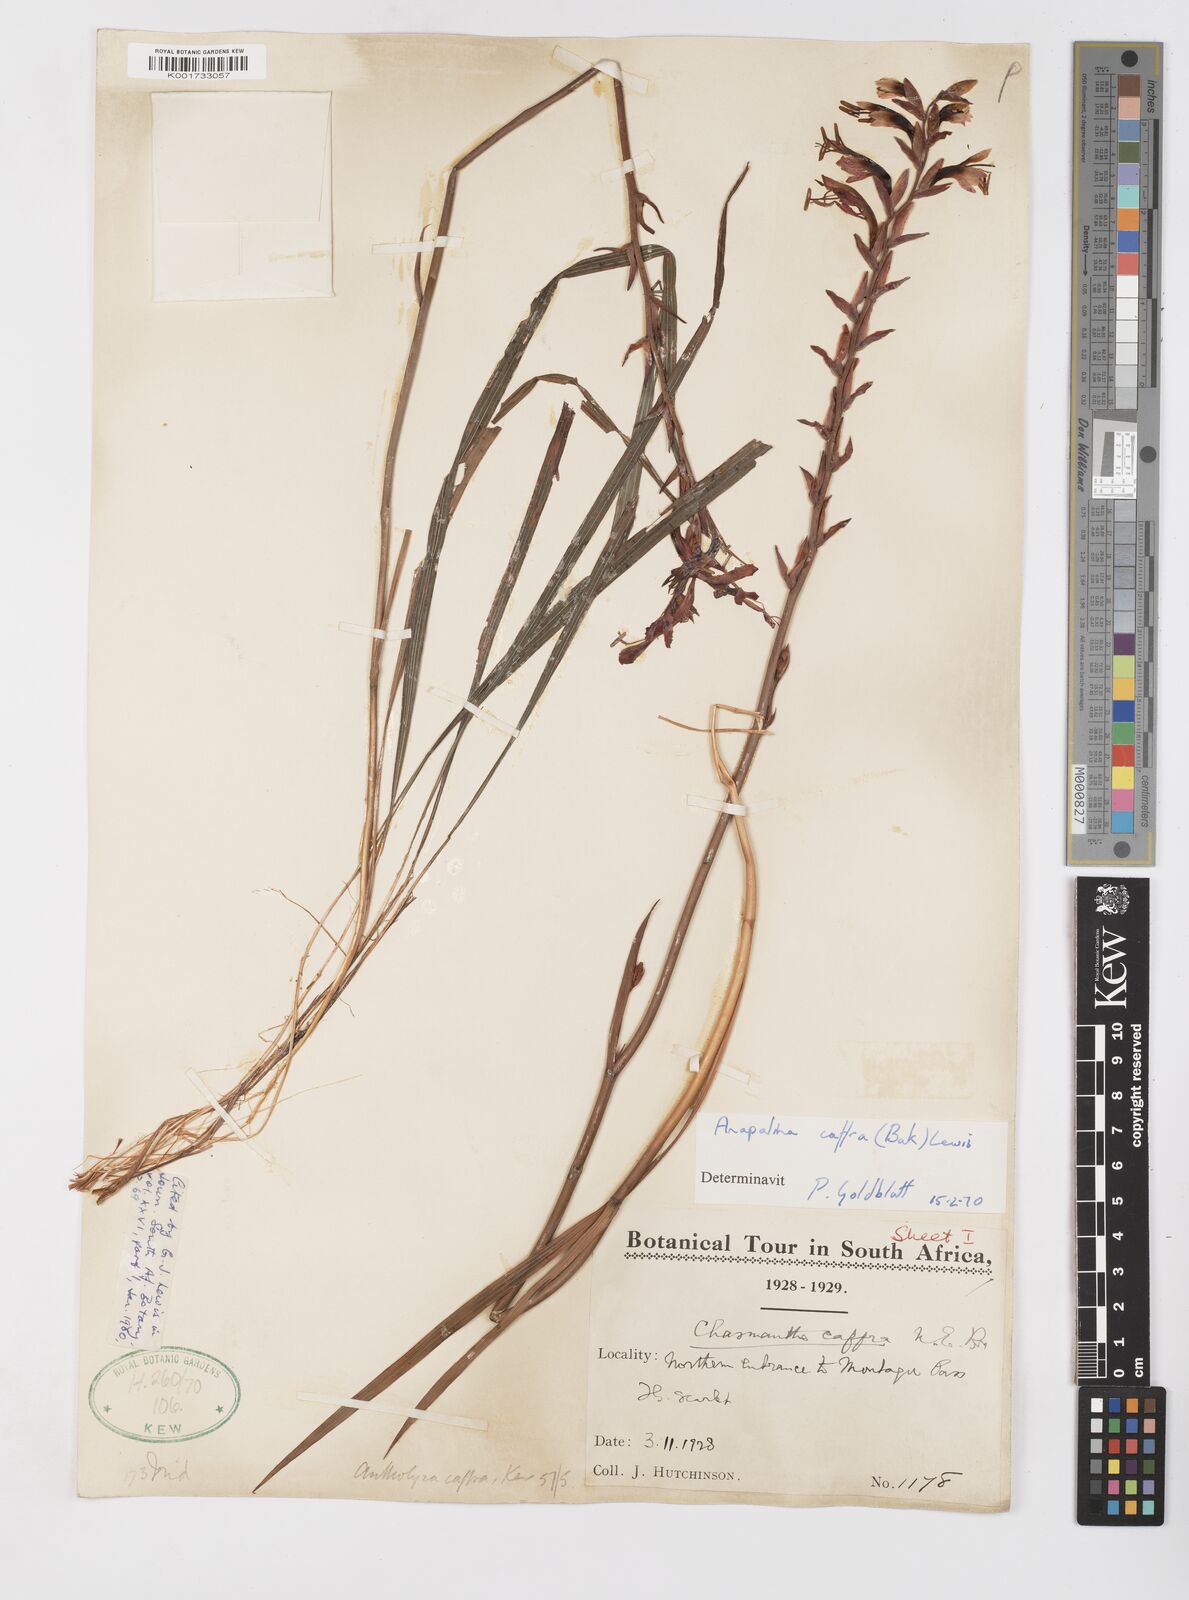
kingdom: Plantae
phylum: Tracheophyta
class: Liliopsida
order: Asparagales
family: Iridaceae
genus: Tritoniopsis
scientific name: Tritoniopsis caffra
